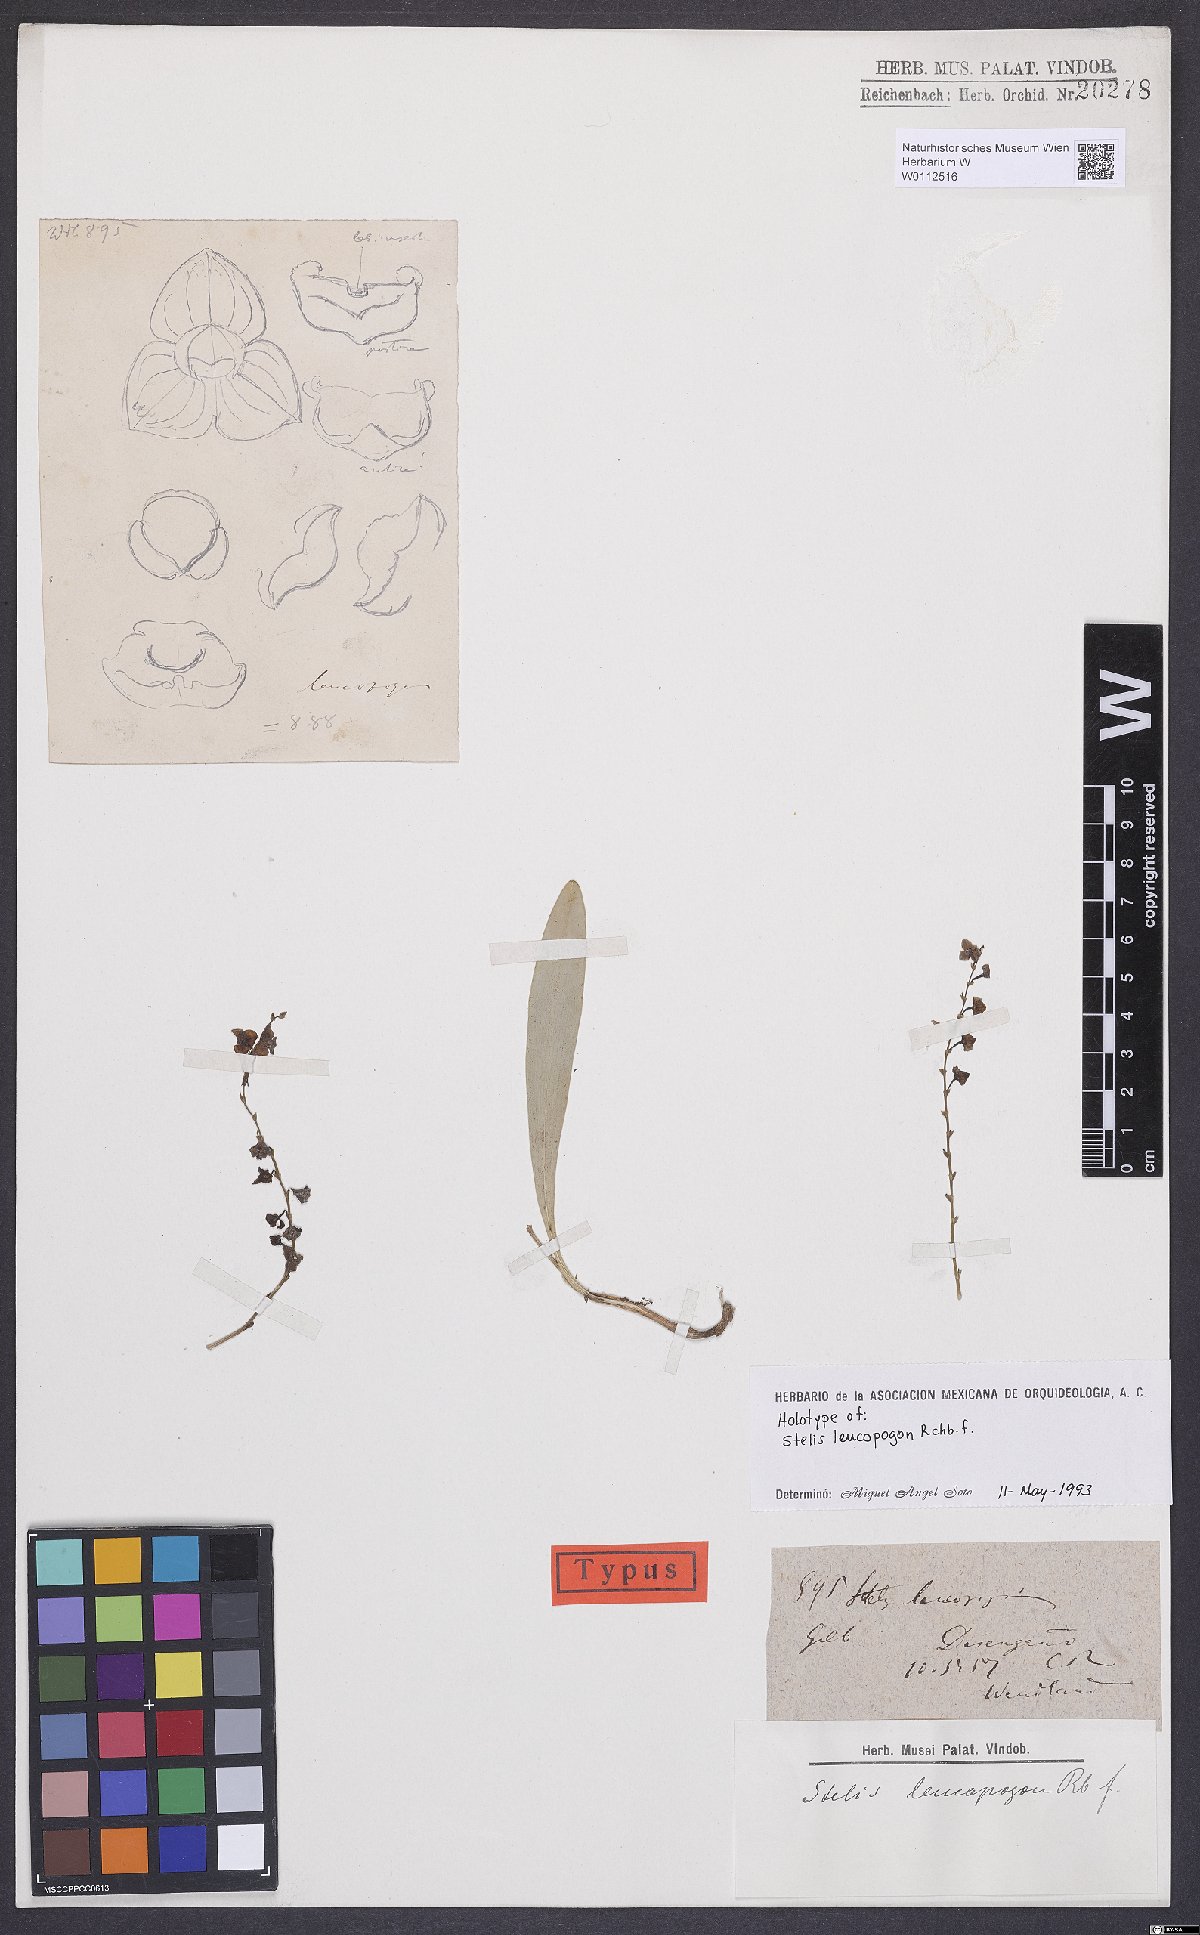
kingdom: Plantae
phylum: Tracheophyta
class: Liliopsida
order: Asparagales
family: Orchidaceae
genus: Stelis
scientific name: Stelis superbiens
